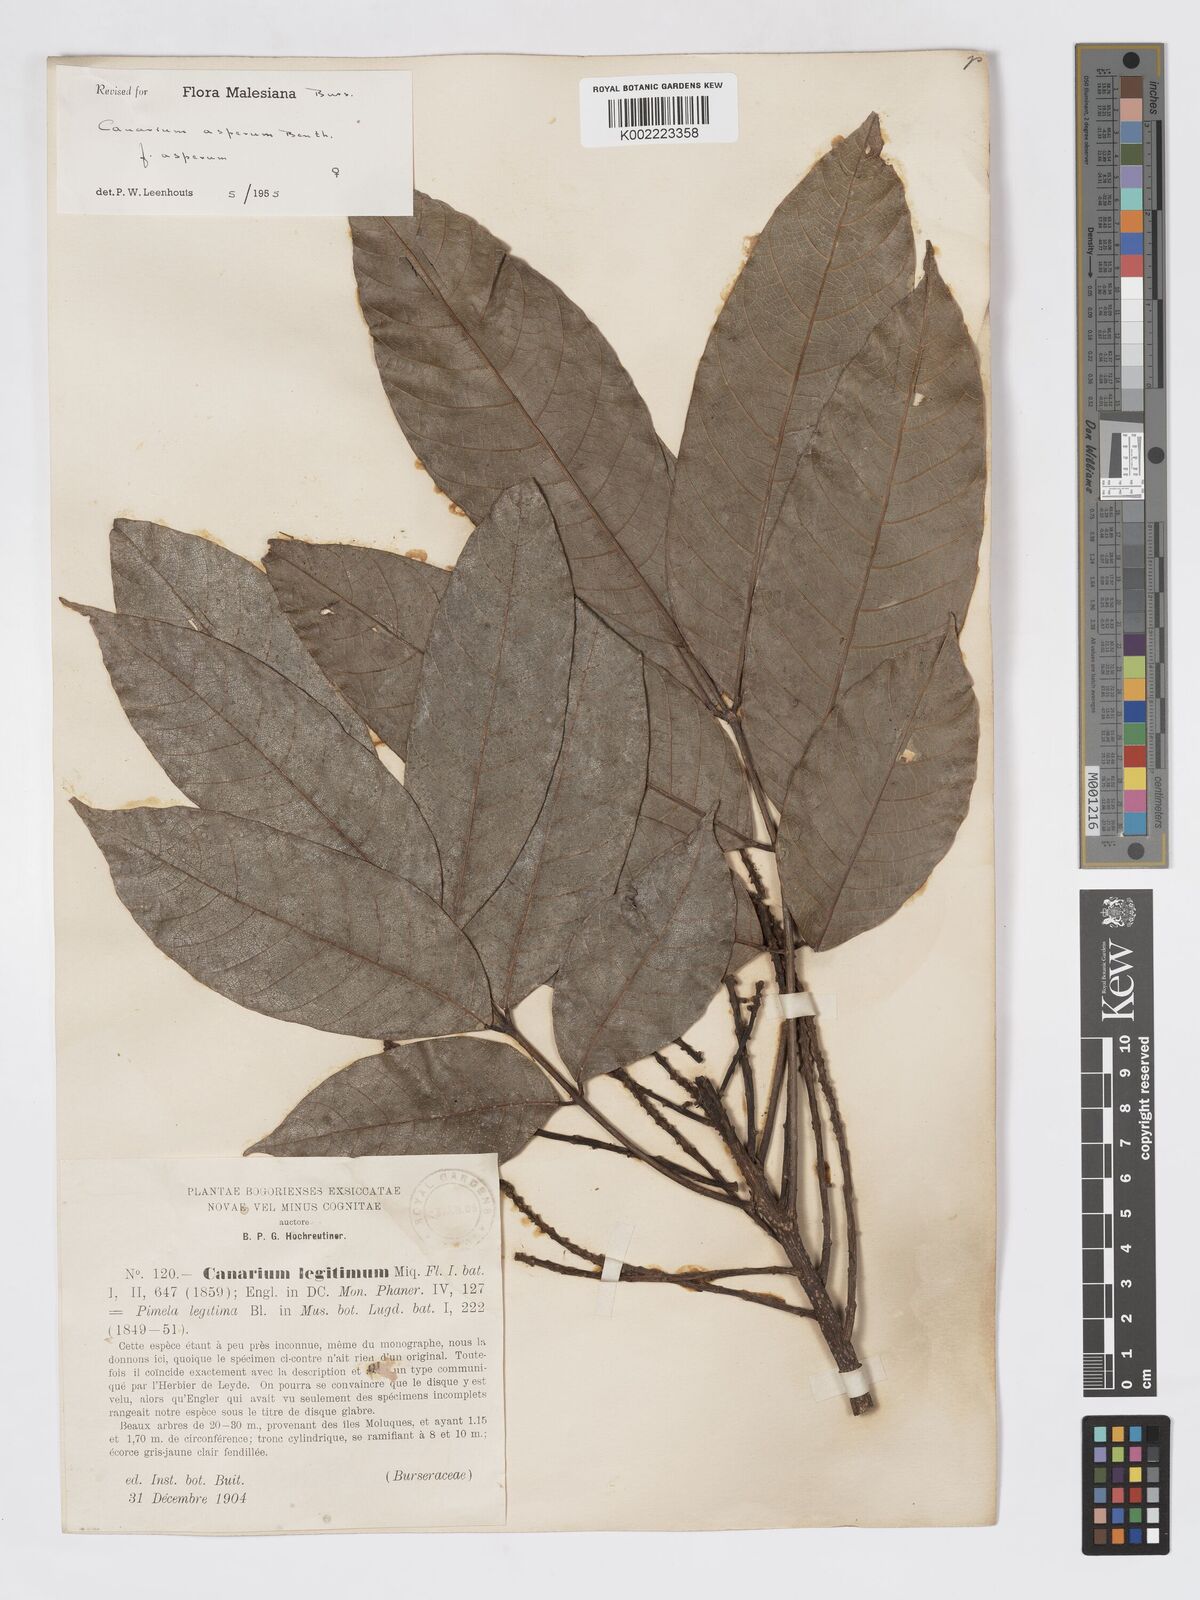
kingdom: Plantae
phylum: Tracheophyta
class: Magnoliopsida
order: Sapindales
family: Burseraceae
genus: Canarium
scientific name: Canarium asperum
